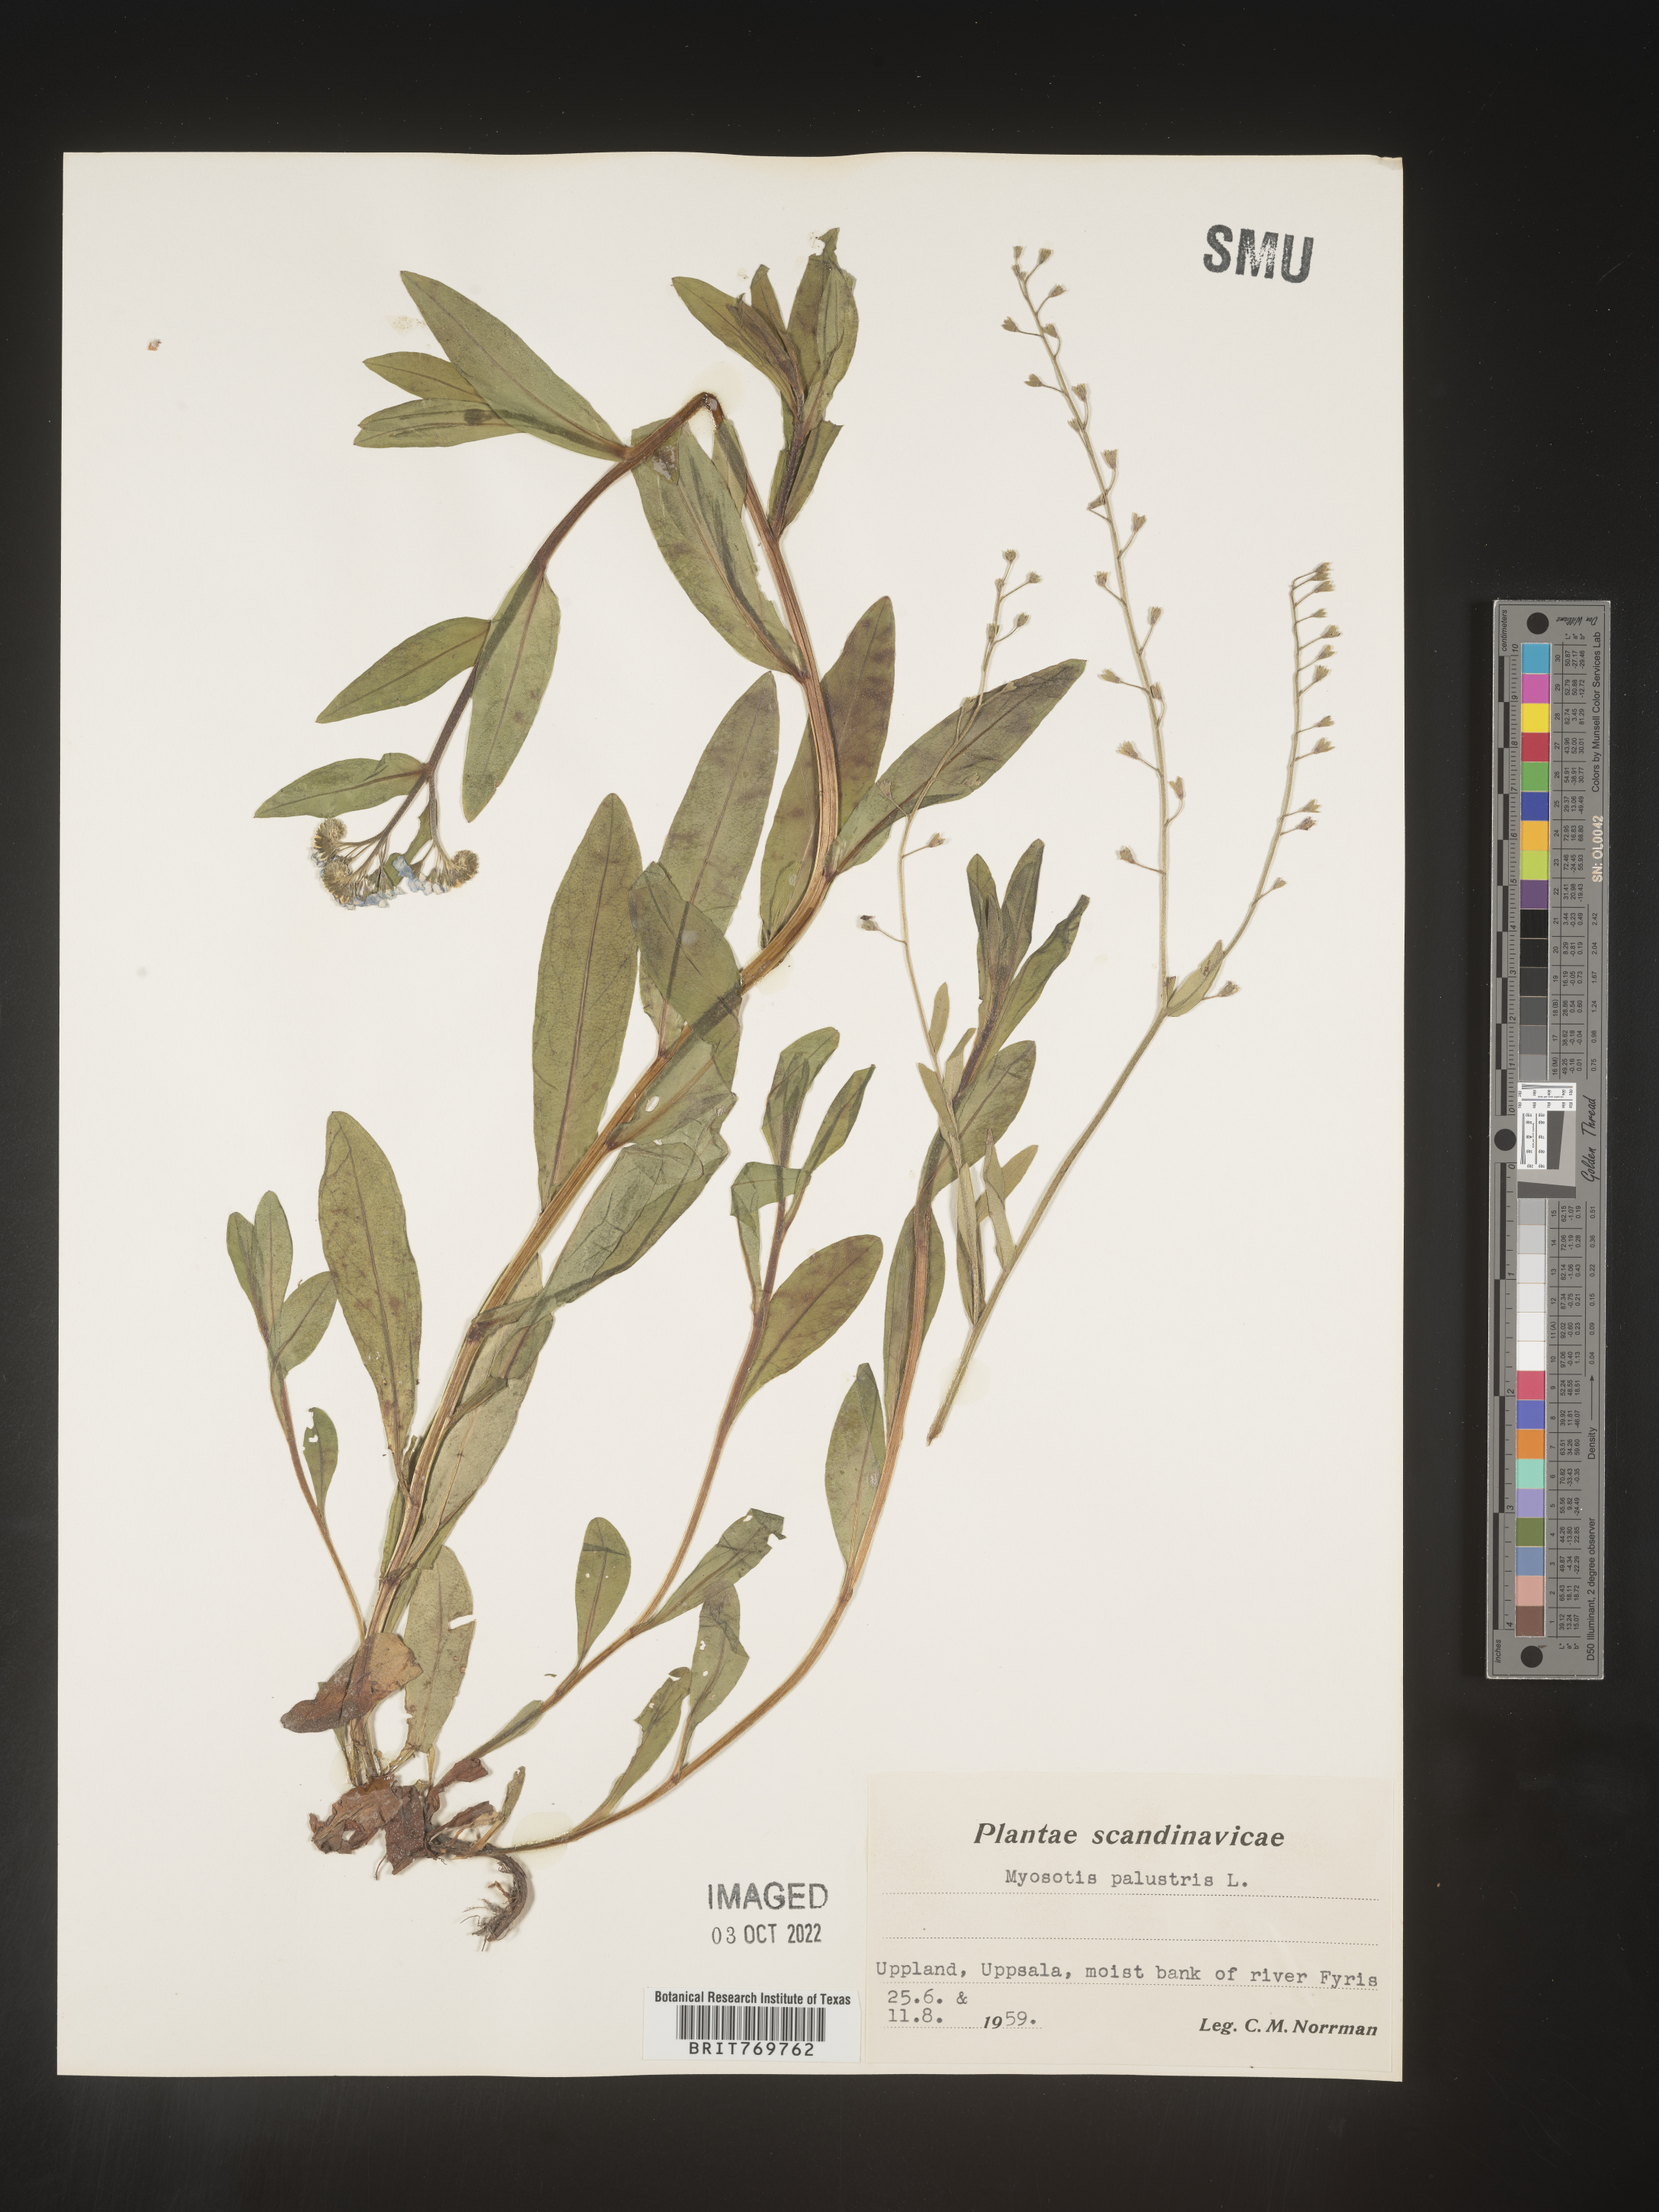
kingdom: Plantae
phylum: Tracheophyta
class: Magnoliopsida
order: Boraginales
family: Boraginaceae
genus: Myosotis
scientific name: Myosotis
